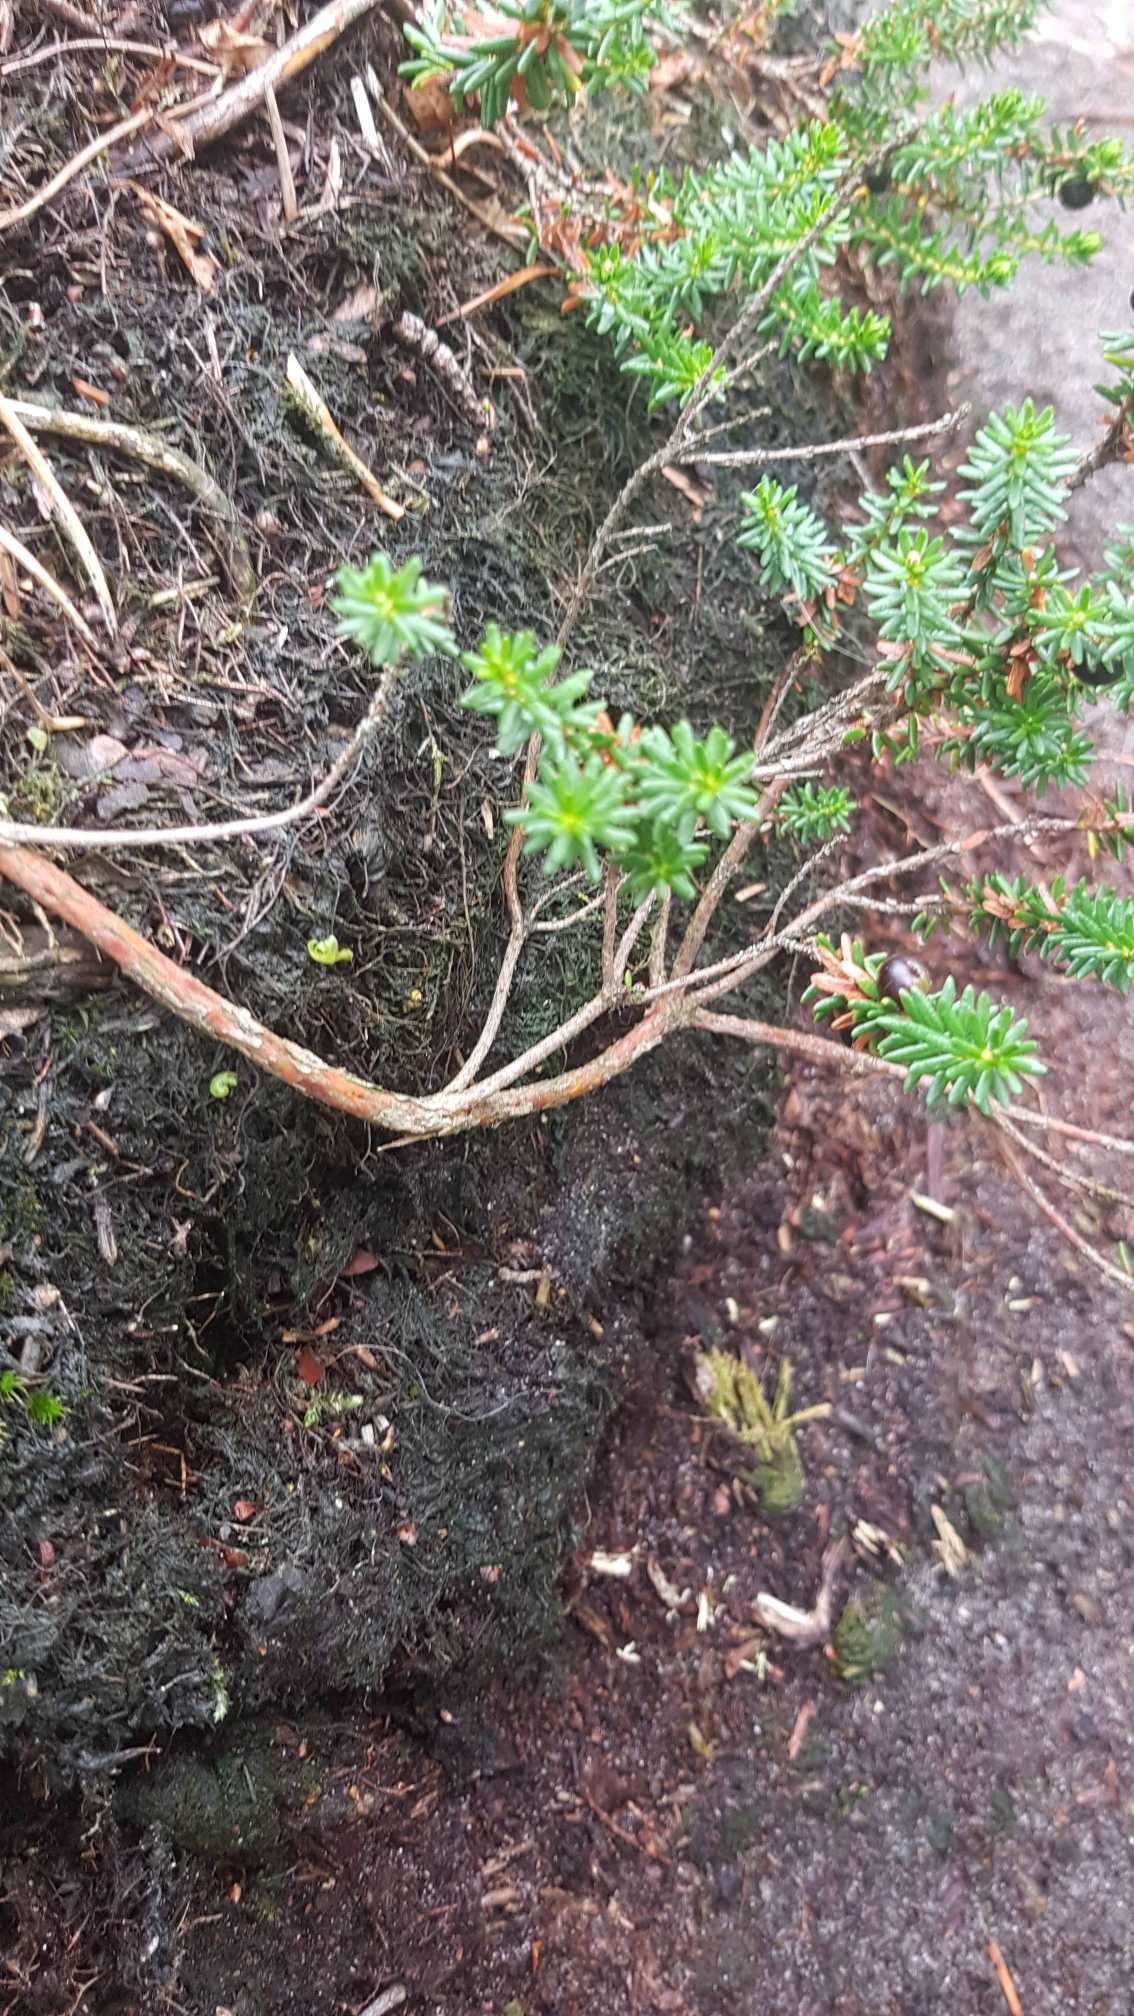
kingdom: Plantae
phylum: Tracheophyta
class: Magnoliopsida
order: Ericales
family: Ericaceae
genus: Empetrum
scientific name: Empetrum nigrum
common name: Revling
